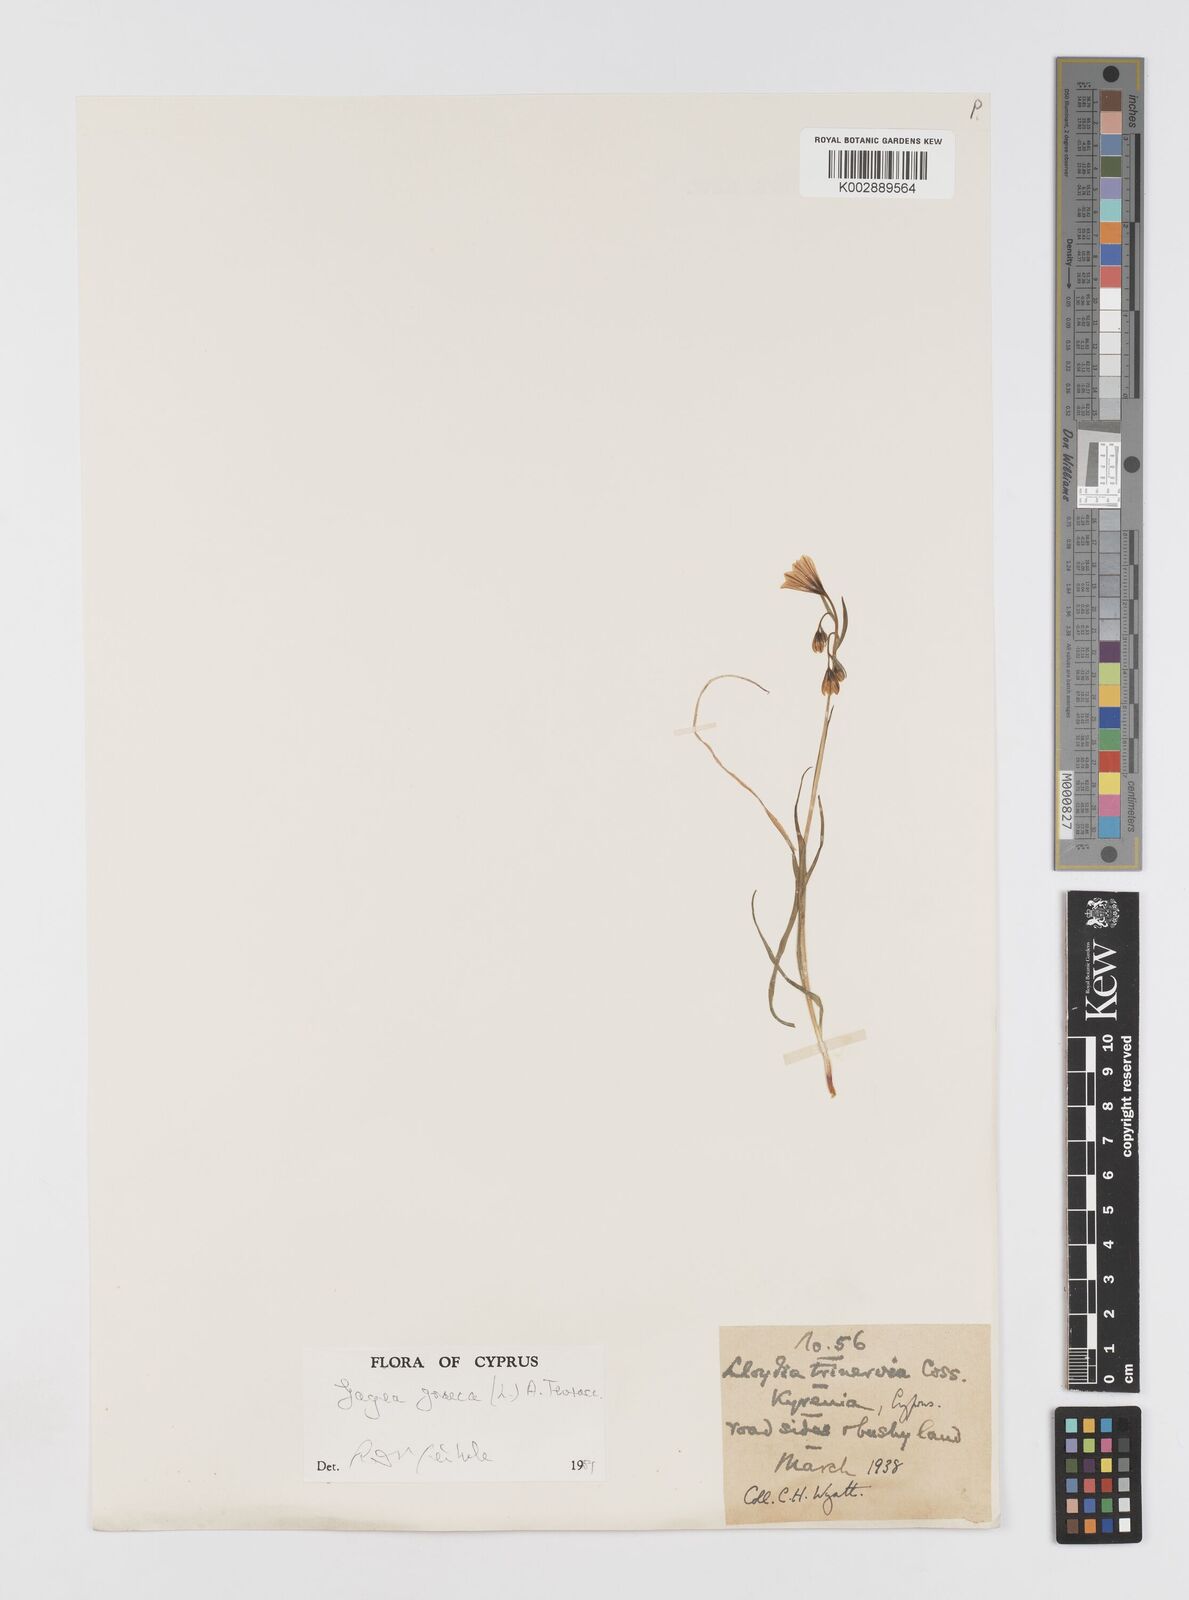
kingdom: Plantae
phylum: Tracheophyta
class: Liliopsida
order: Liliales
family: Liliaceae
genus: Gagea
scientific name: Gagea graeca
